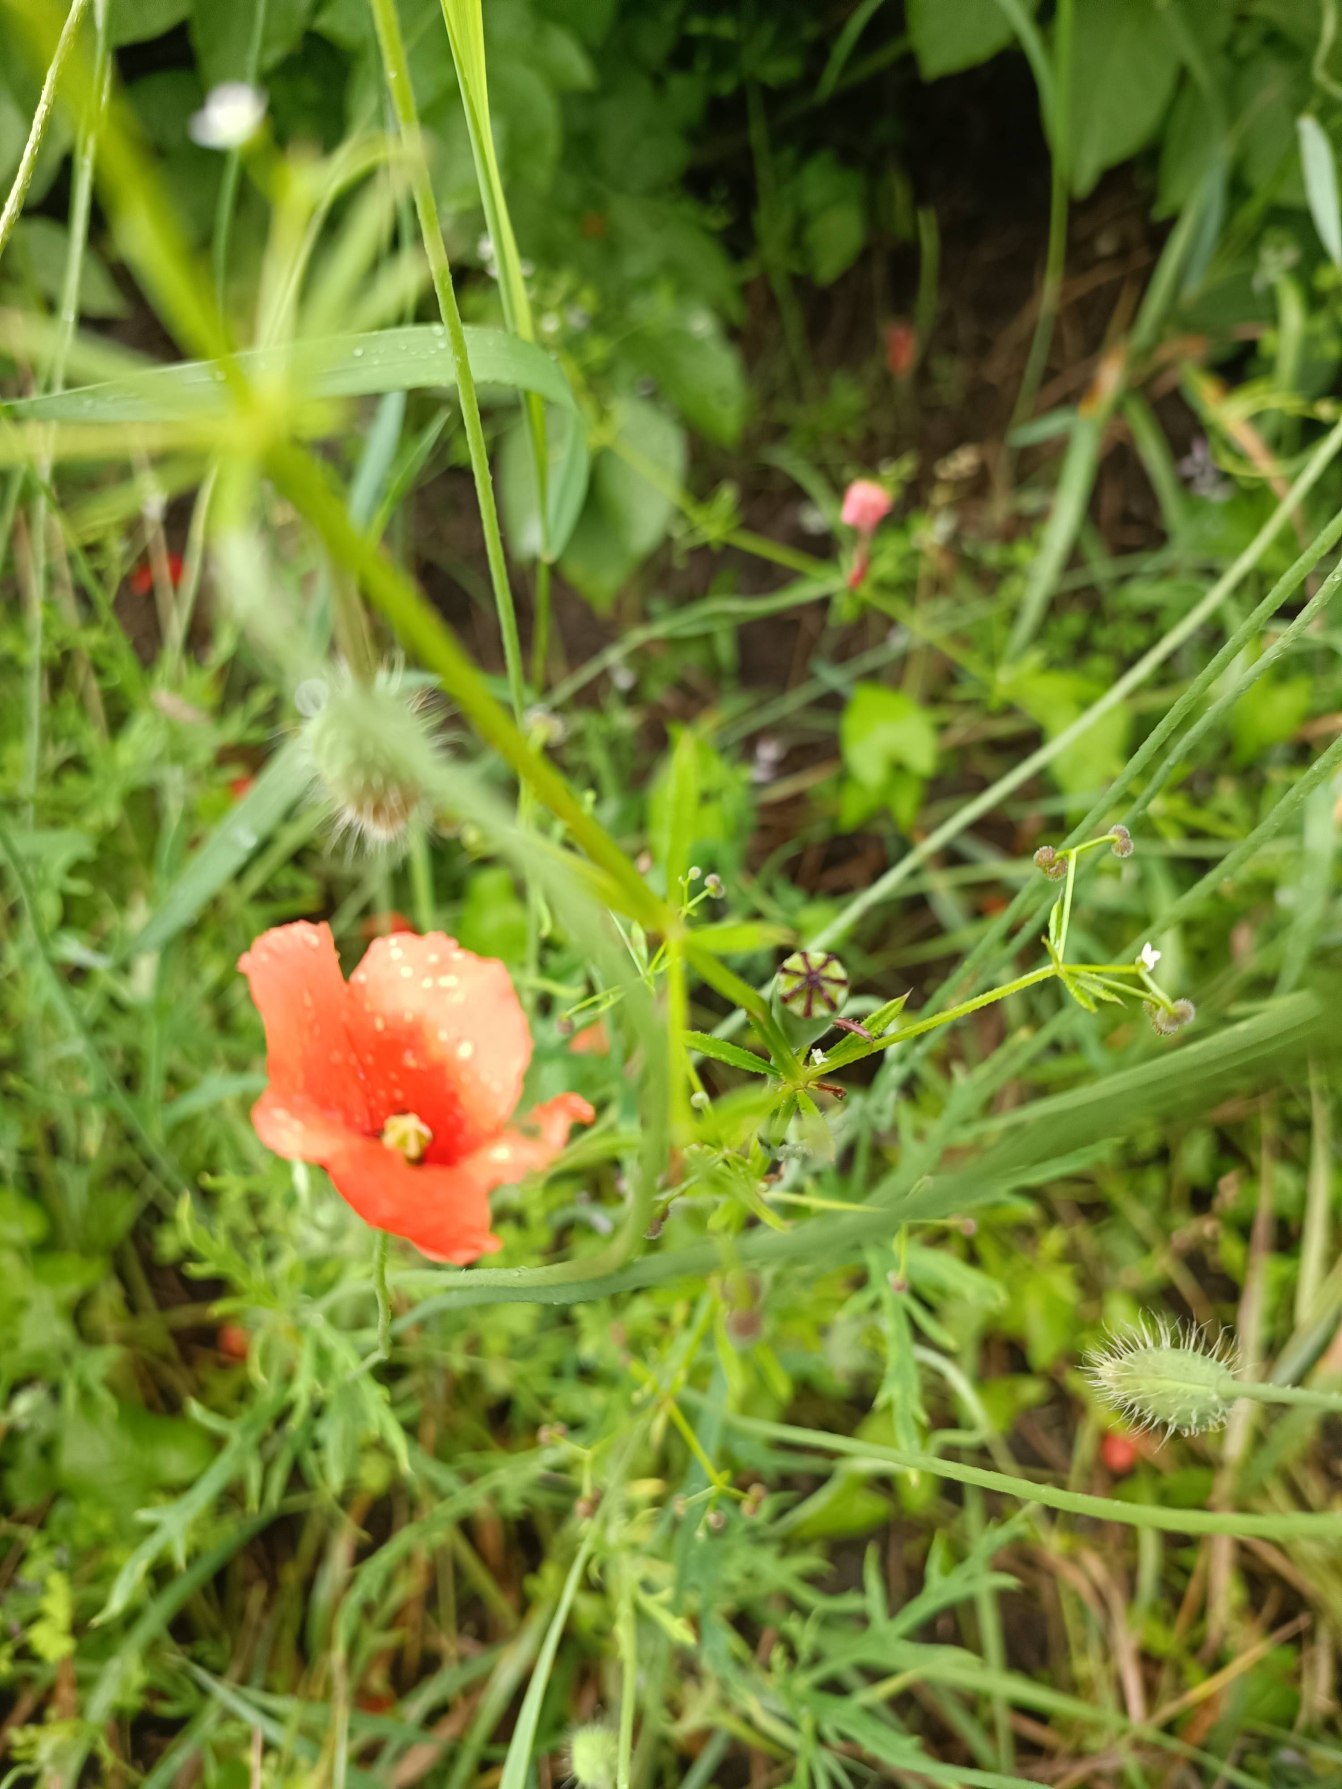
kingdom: Plantae
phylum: Tracheophyta
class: Magnoliopsida
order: Ranunculales
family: Papaveraceae
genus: Papaver
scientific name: Papaver dubium
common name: Gærde-valmue
